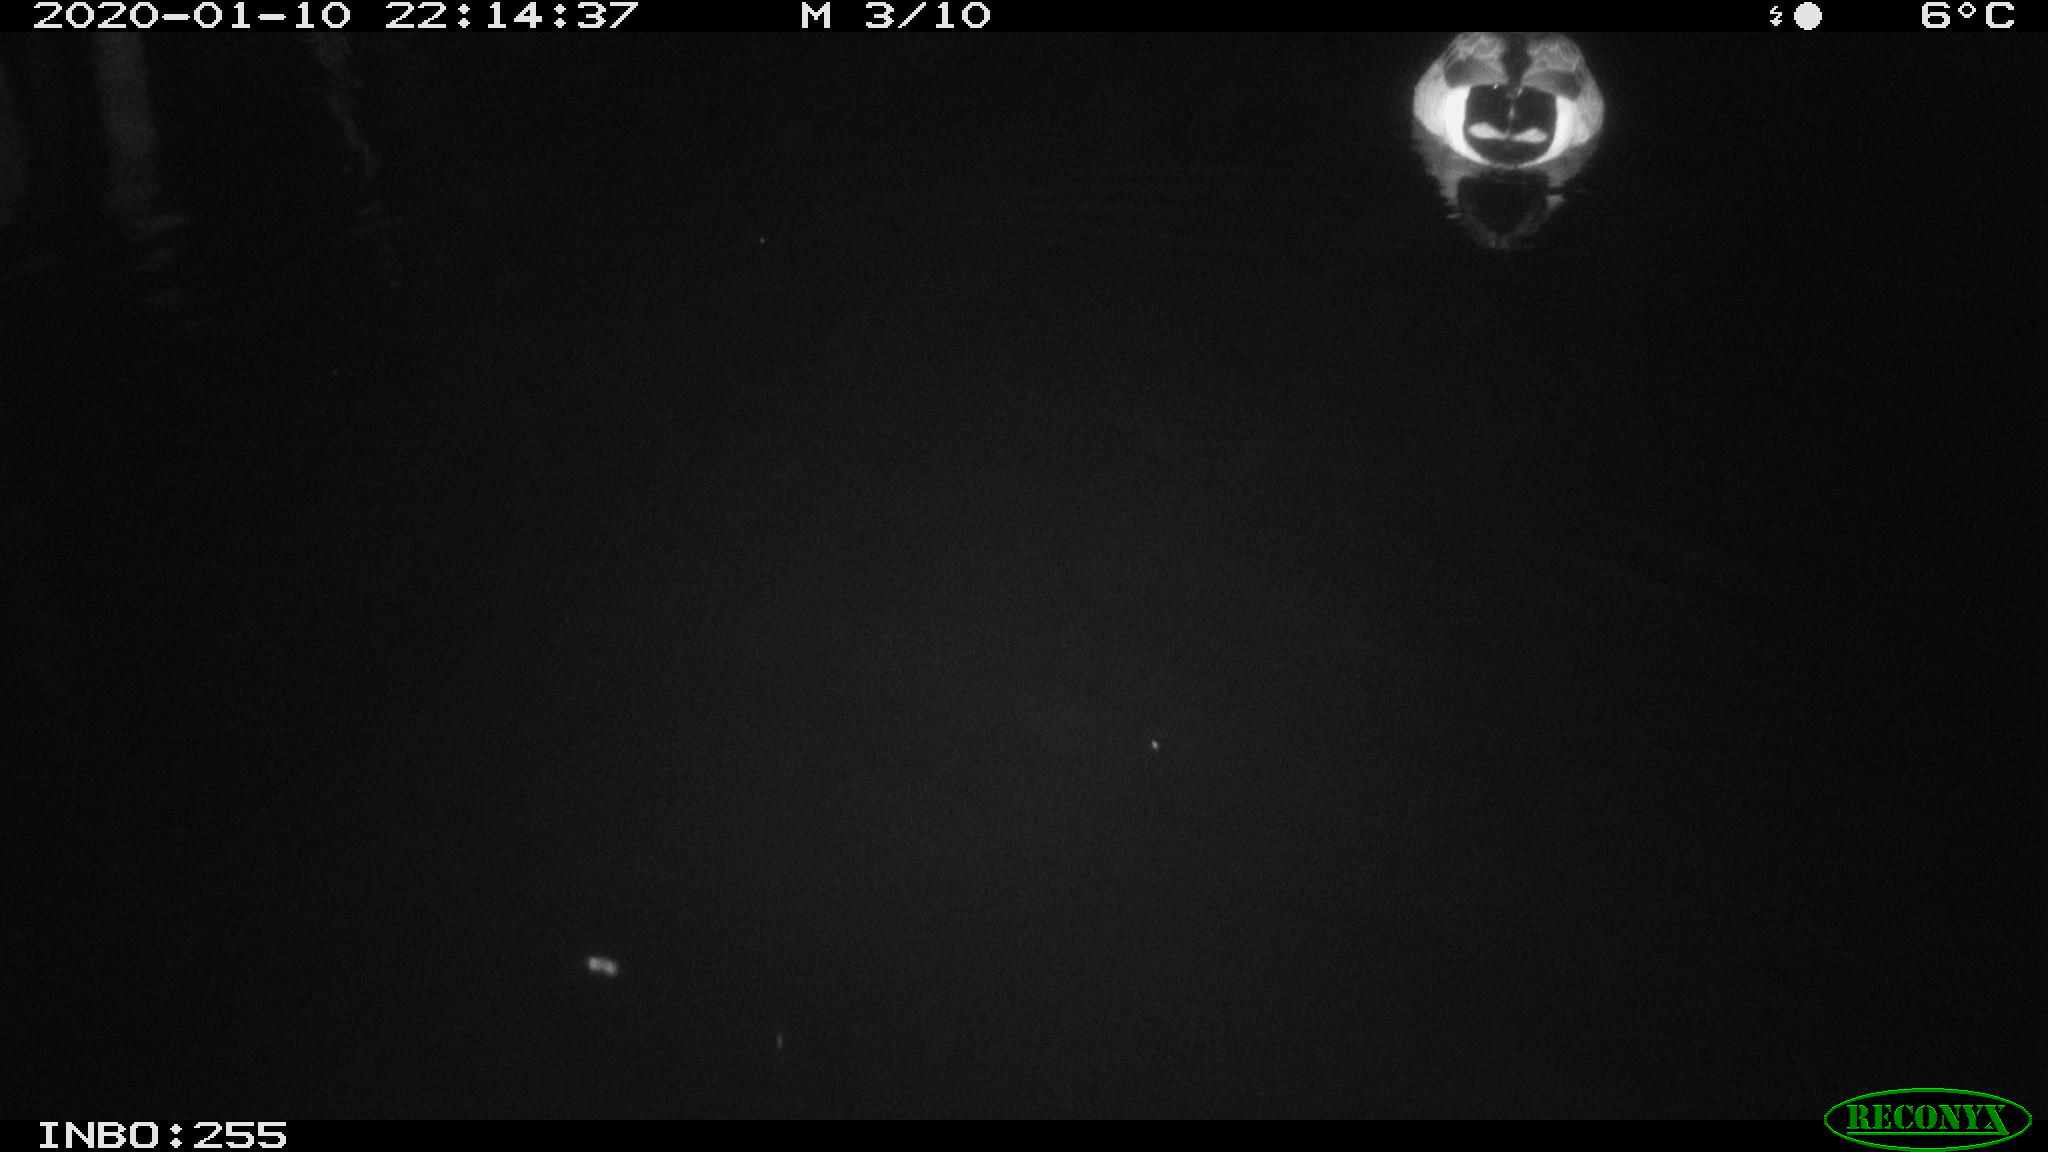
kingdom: Animalia
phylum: Chordata
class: Aves
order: Anseriformes
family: Anatidae
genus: Anas
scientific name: Anas platyrhynchos
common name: Mallard
